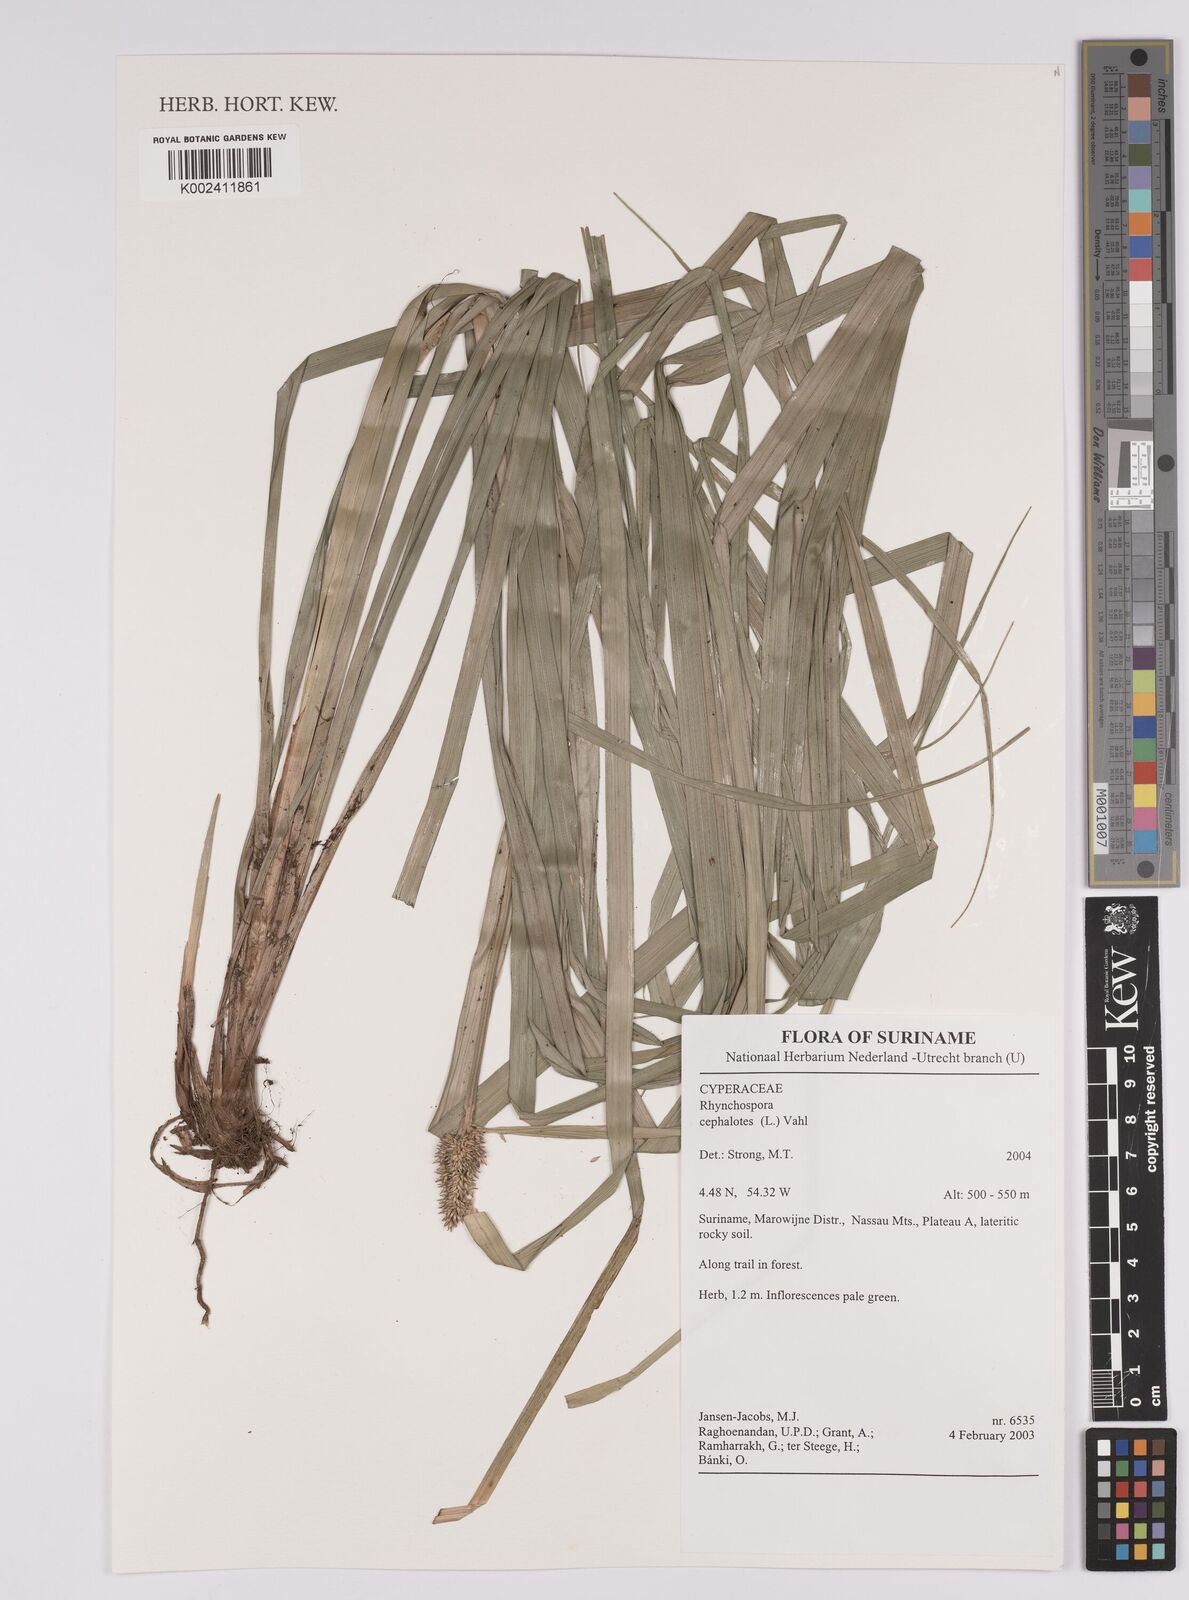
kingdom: Plantae
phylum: Tracheophyta
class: Liliopsida
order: Poales
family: Cyperaceae
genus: Rhynchospora
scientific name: Rhynchospora cephalotes
